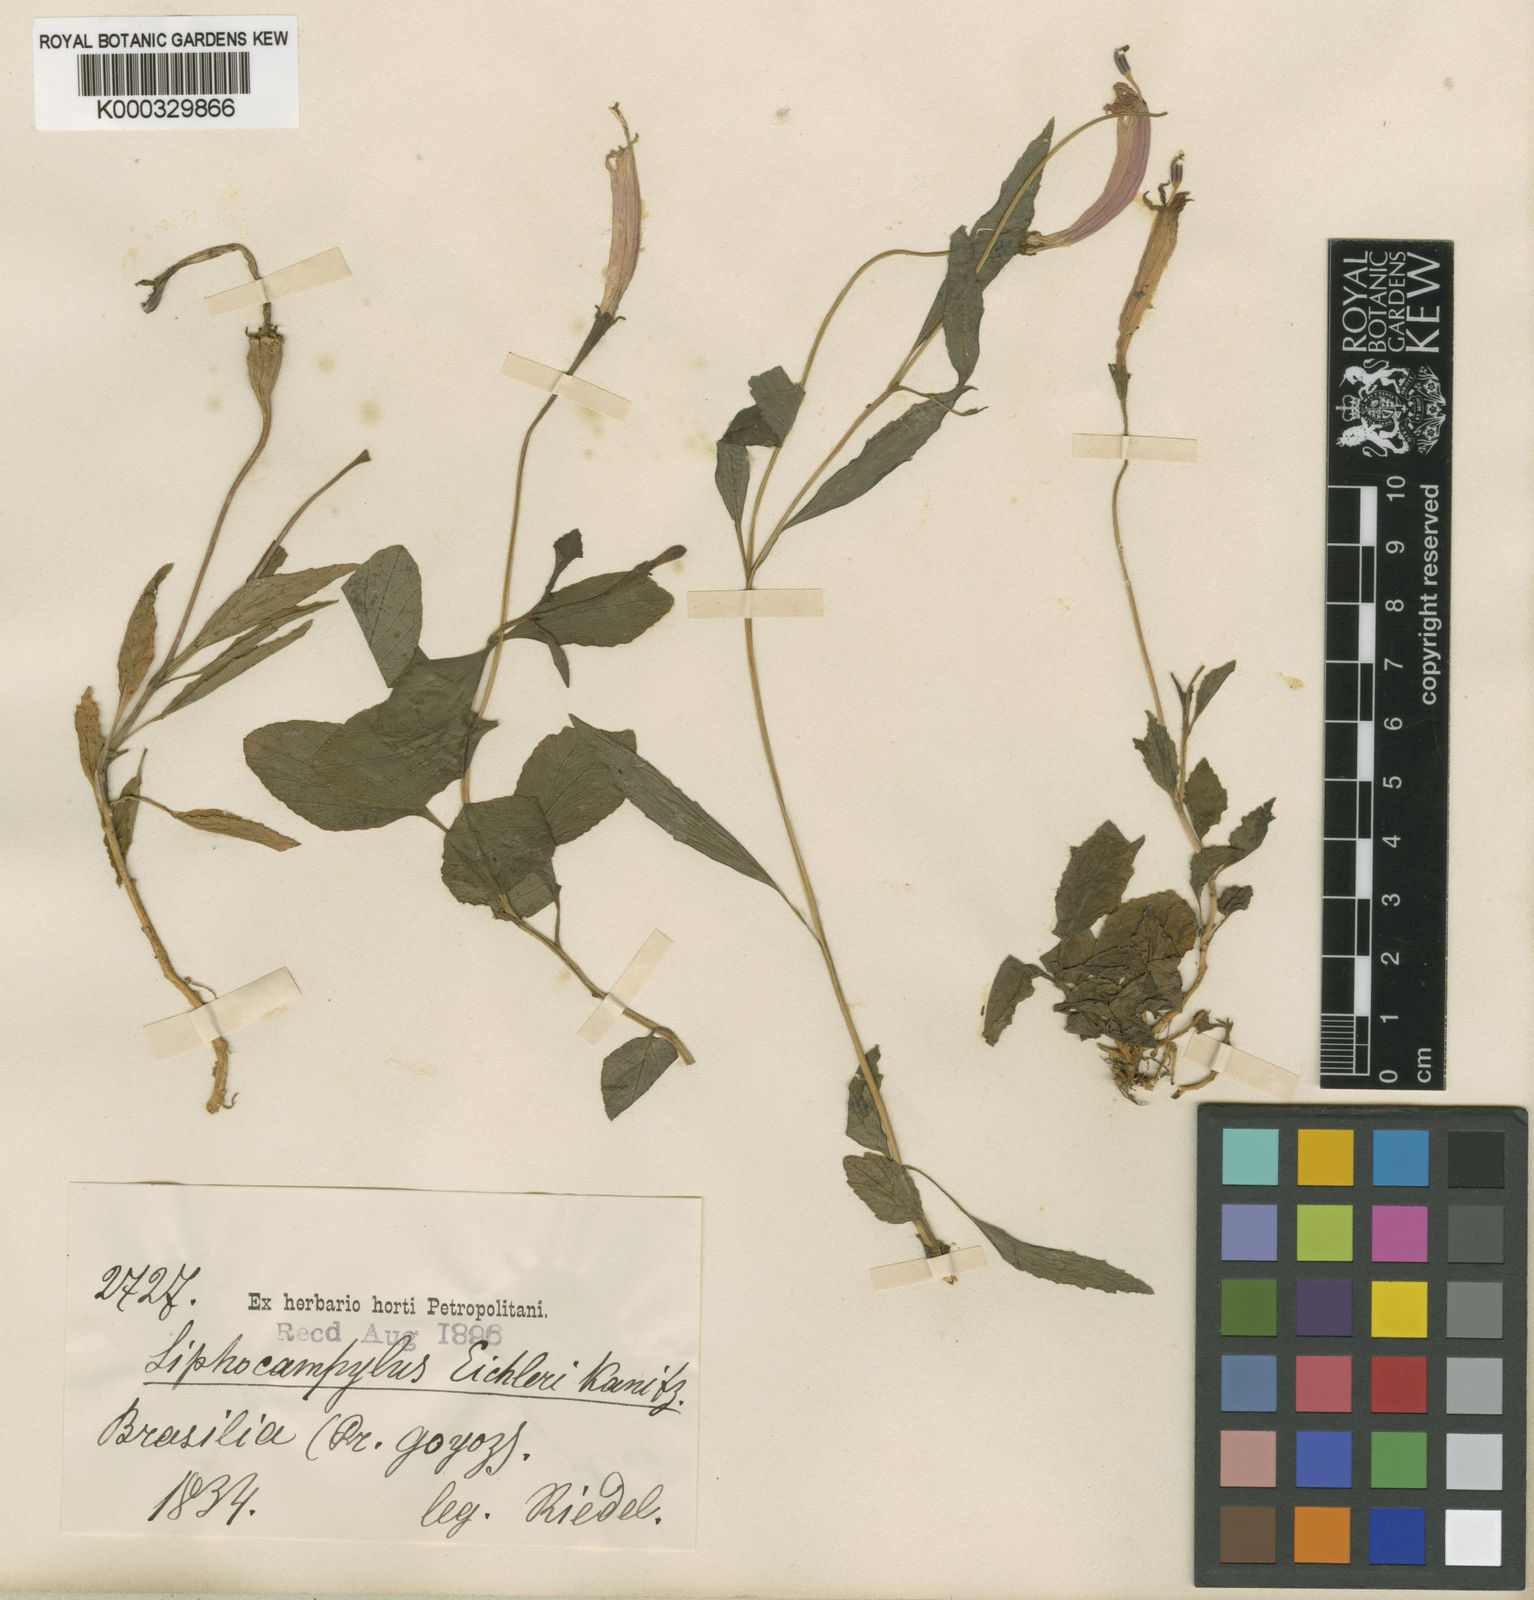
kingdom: Plantae
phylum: Tracheophyta
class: Magnoliopsida
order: Asterales
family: Campanulaceae
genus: Siphocampylus
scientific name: Siphocampylus eichleri
